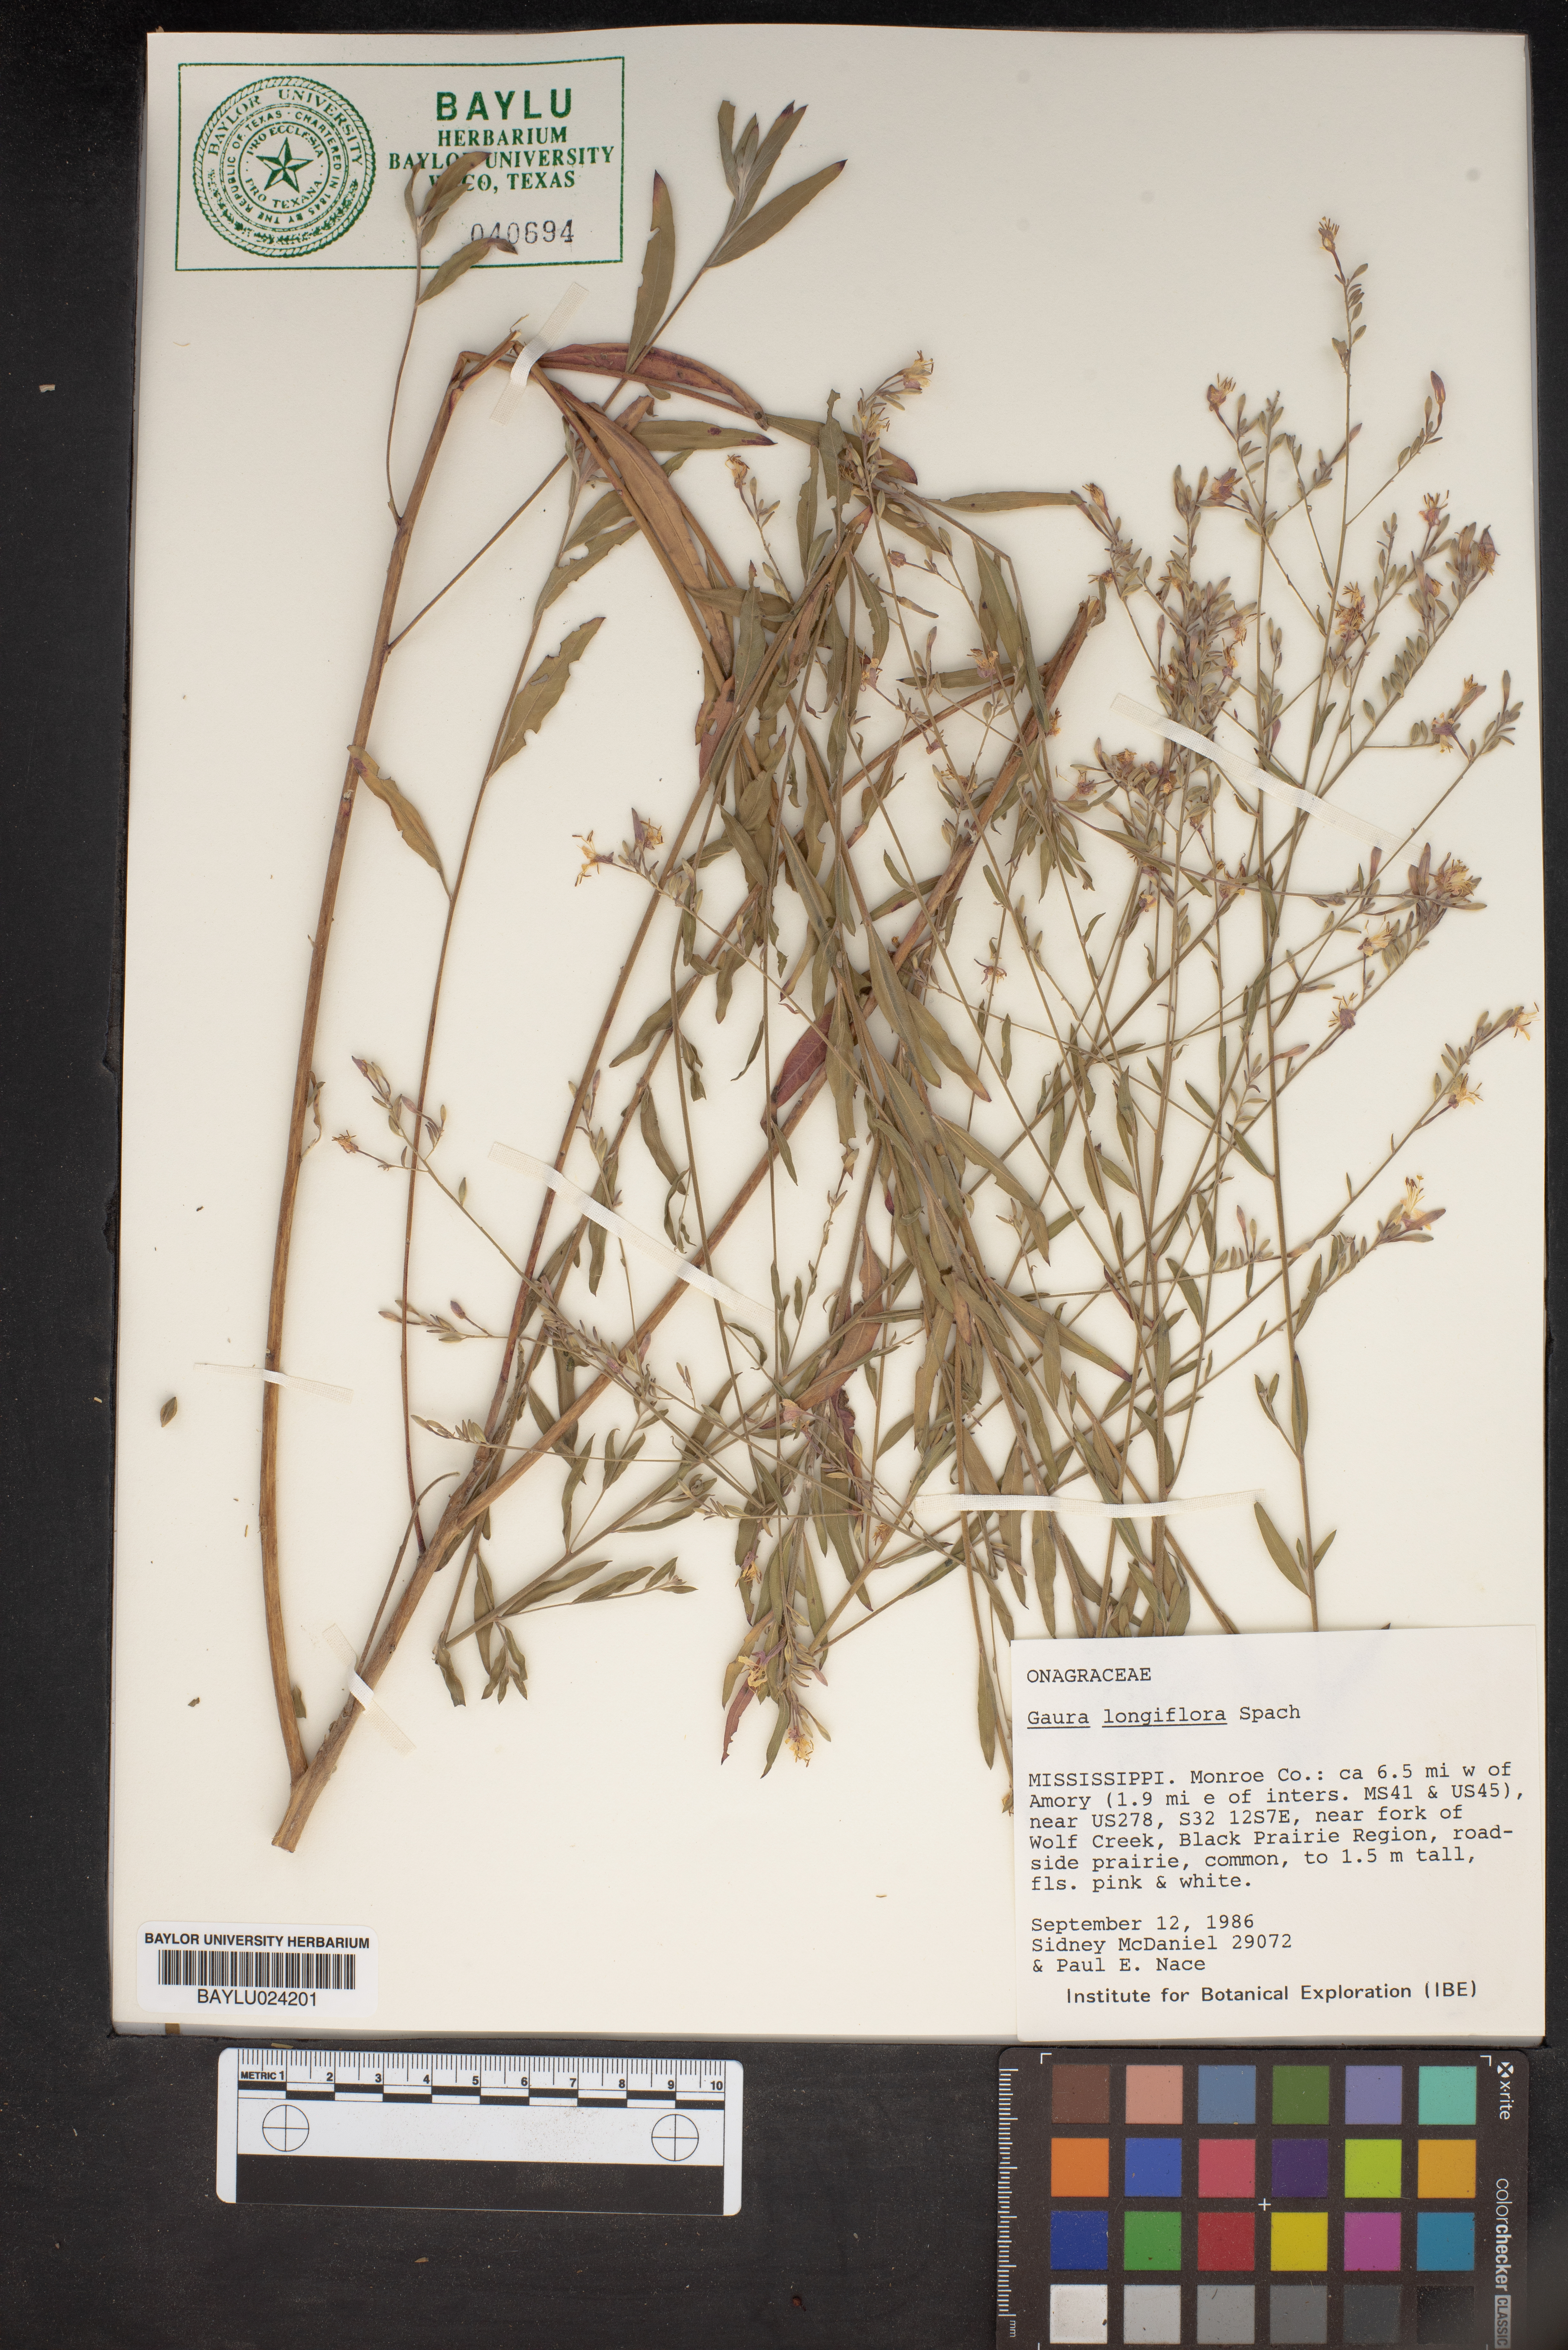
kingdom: Plantae
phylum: Tracheophyta
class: Magnoliopsida
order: Myrtales
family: Onagraceae
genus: Oenothera
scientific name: Oenothera filiformis
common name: Longflower beeblossom
